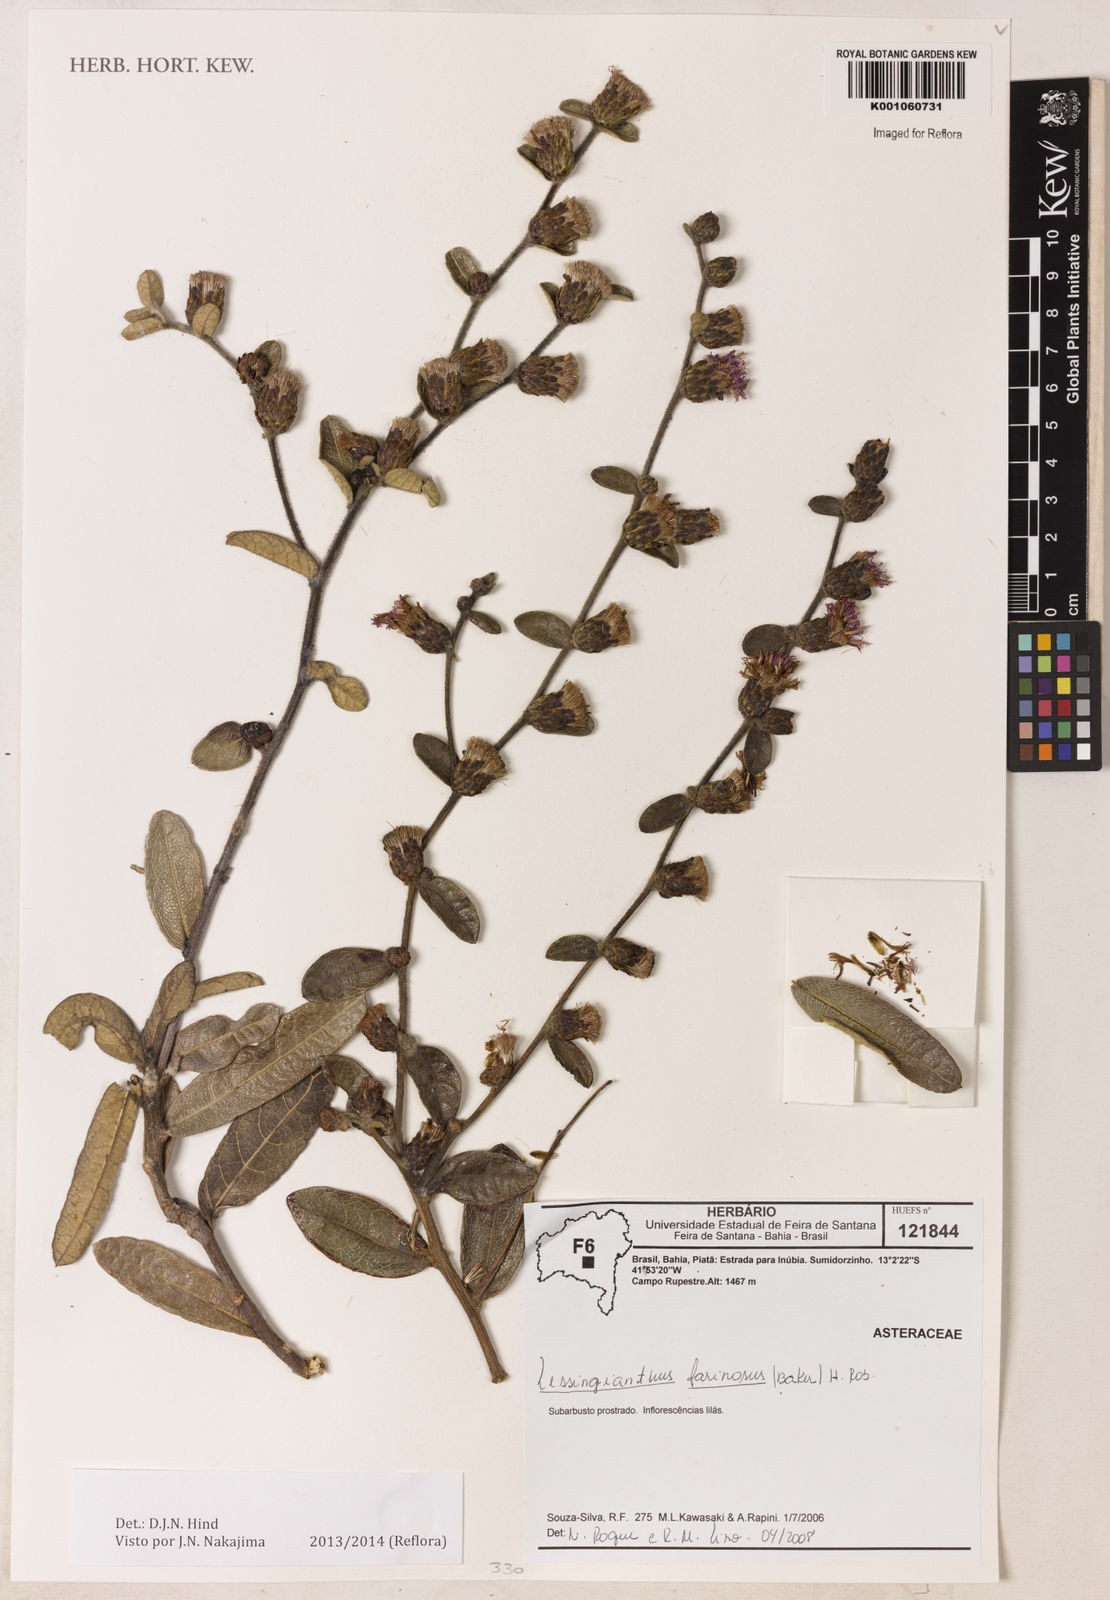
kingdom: Plantae
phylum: Tracheophyta
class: Magnoliopsida
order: Asterales
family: Asteraceae
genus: Lessingianthus
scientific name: Lessingianthus farinosus
